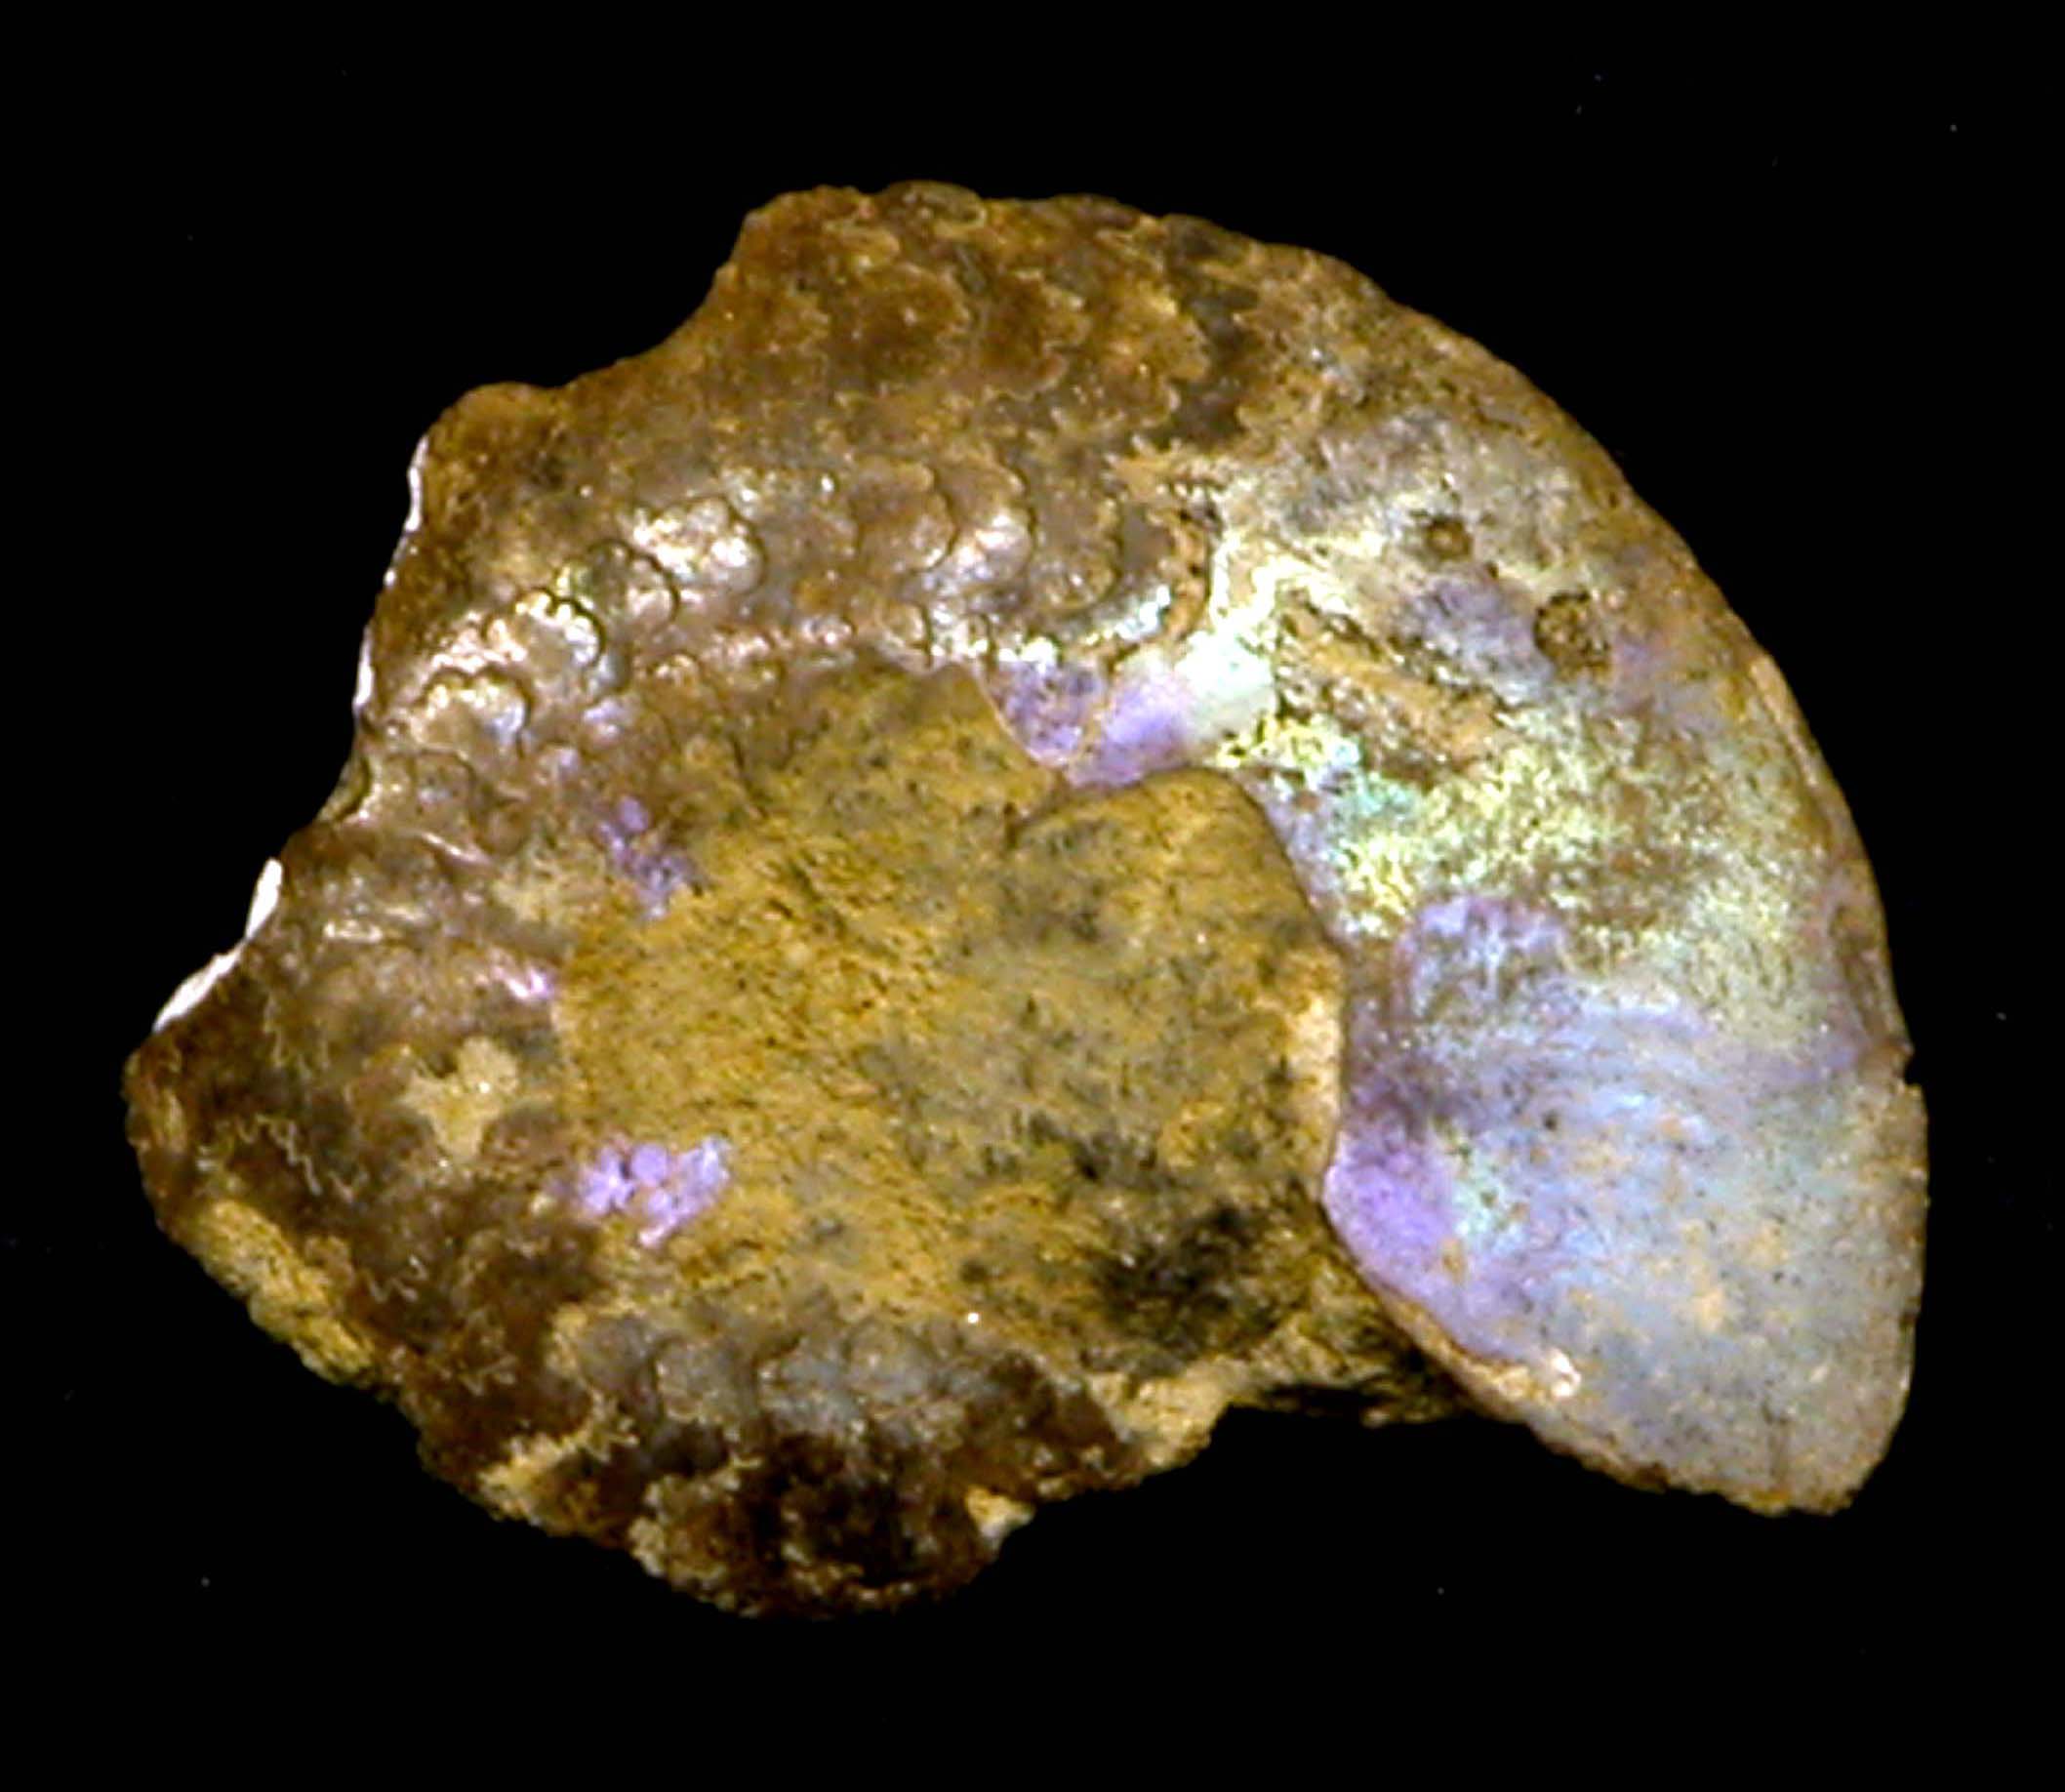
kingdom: Animalia
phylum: Mollusca
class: Cephalopoda
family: Craspeditidae
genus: Garniericeras
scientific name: Garniericeras
